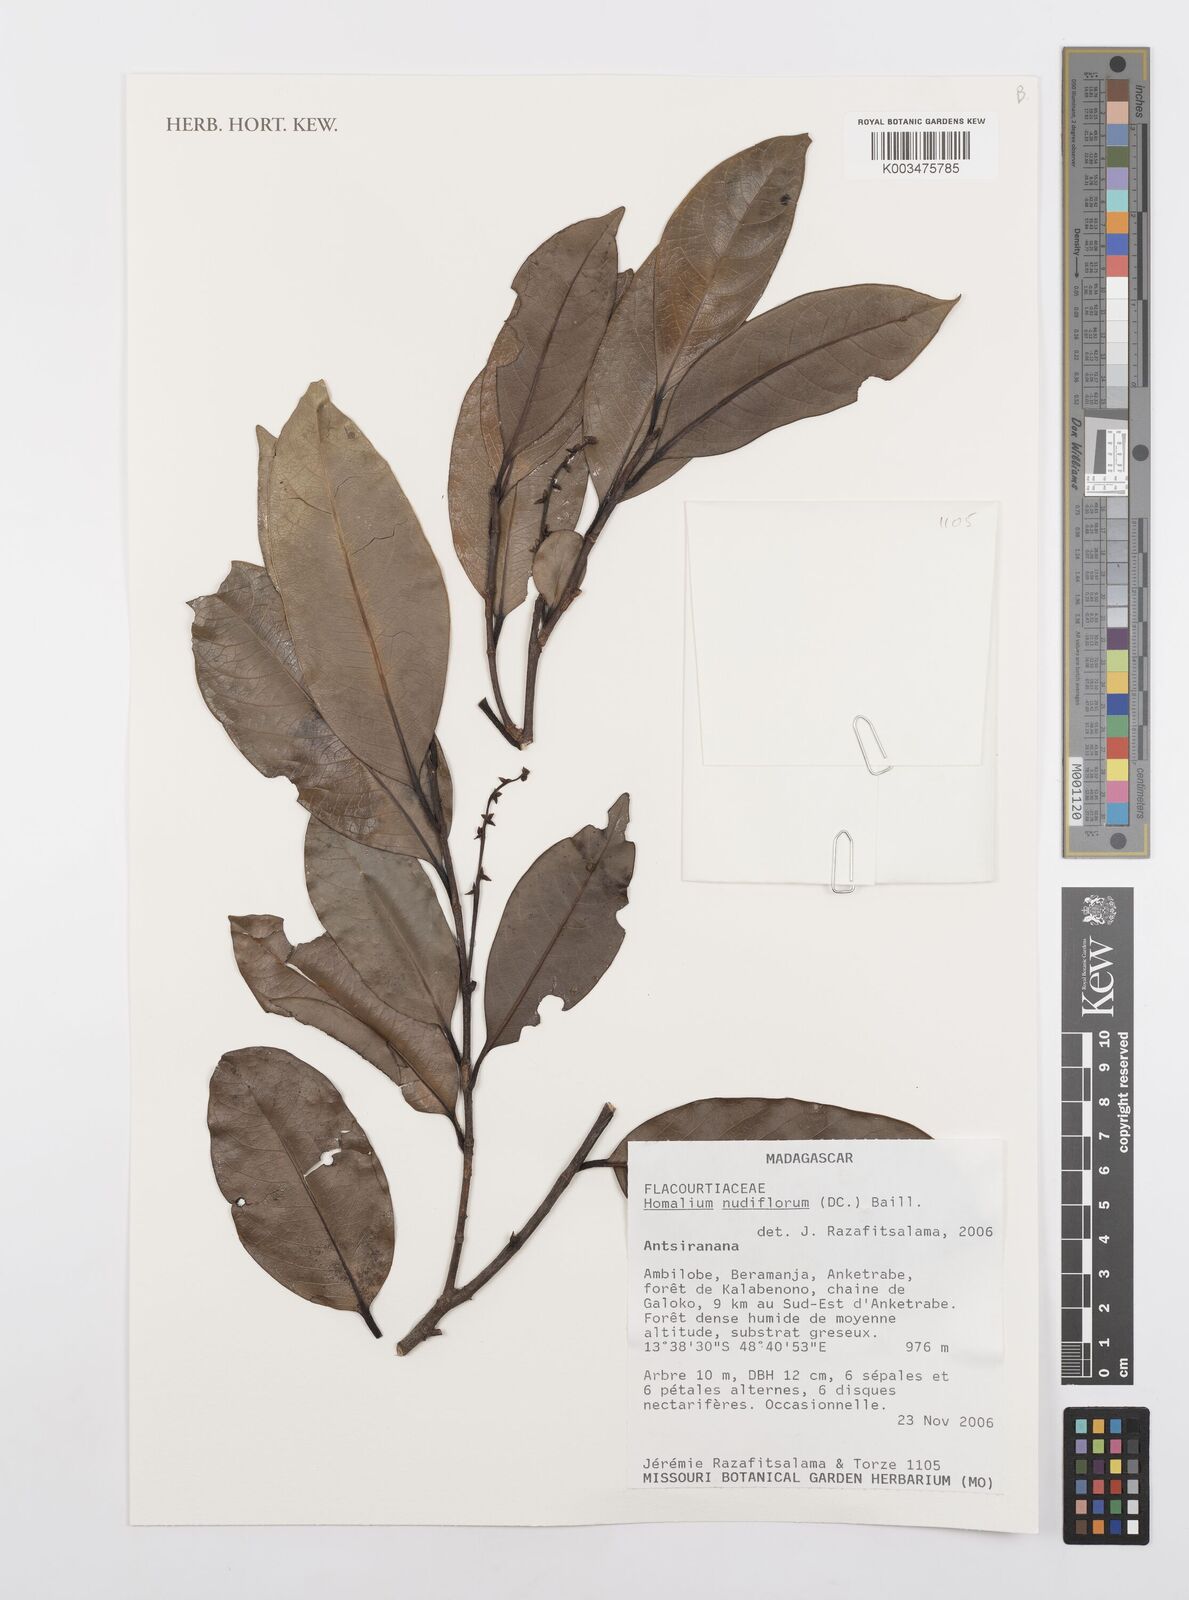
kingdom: Plantae
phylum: Tracheophyta
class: Magnoliopsida
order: Malpighiales
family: Salicaceae
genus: Homalium
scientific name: Homalium nudiflorum
